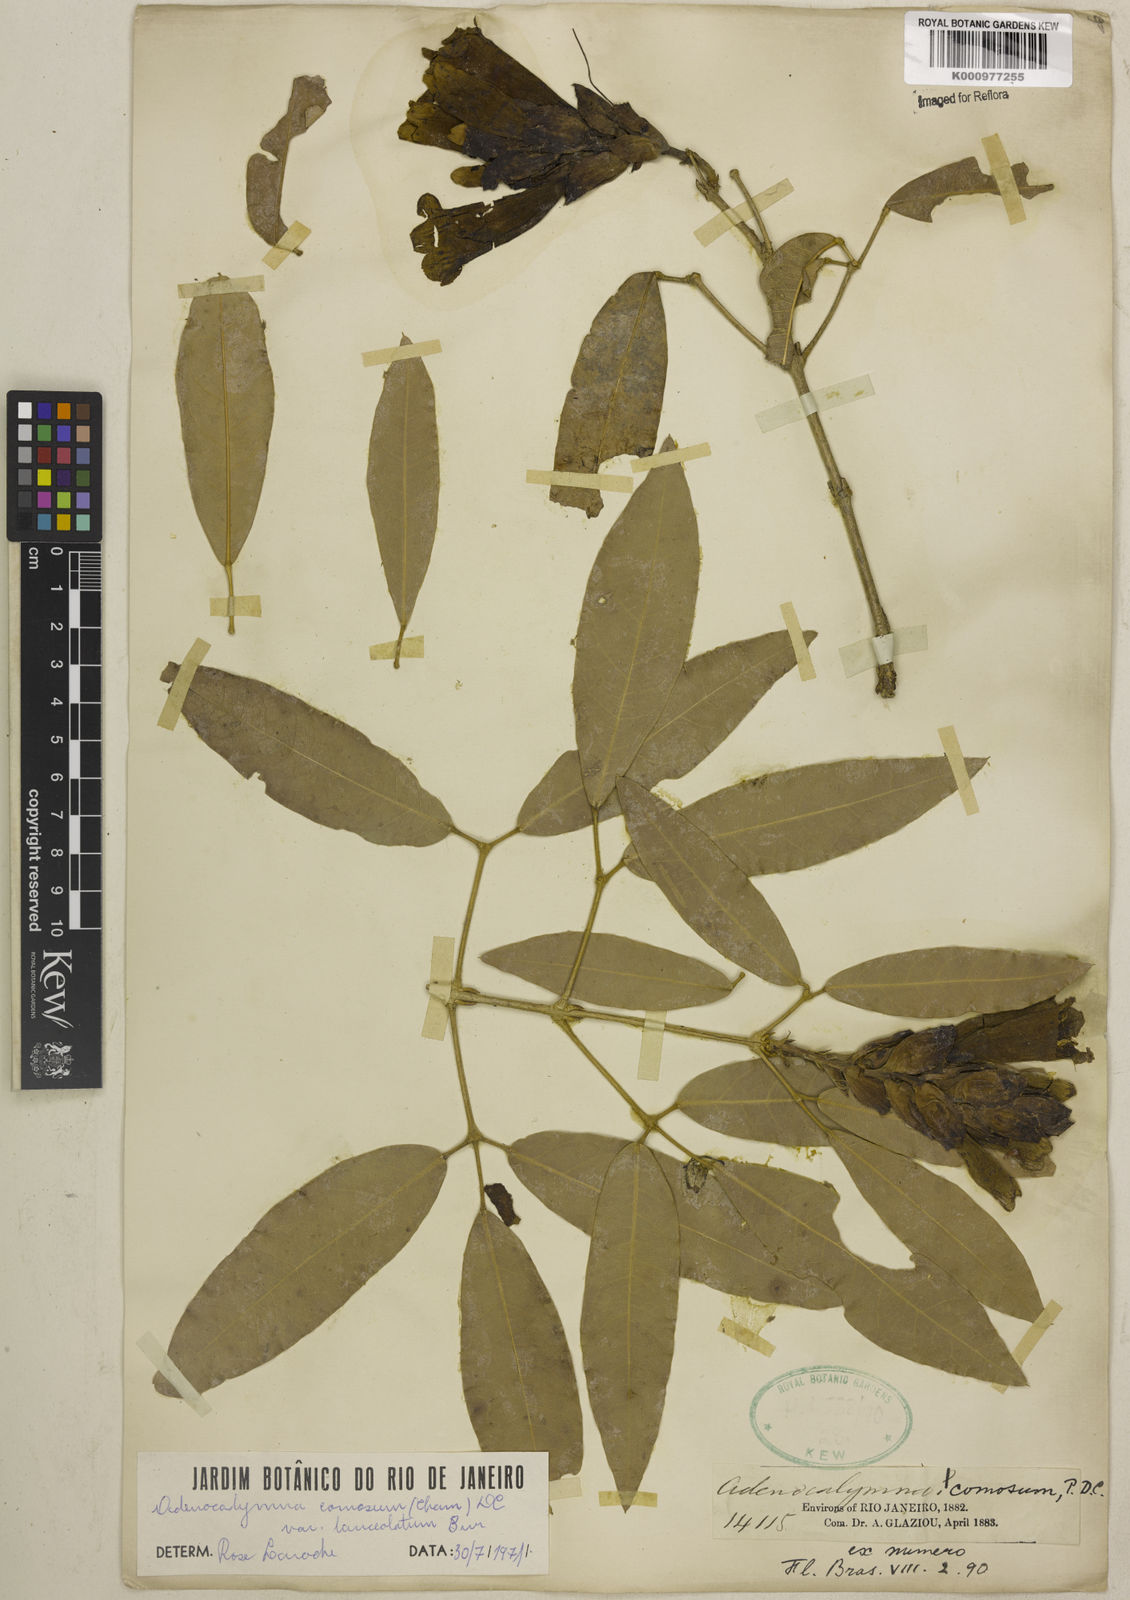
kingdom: Plantae
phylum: Tracheophyta
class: Magnoliopsida
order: Lamiales
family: Bignoniaceae
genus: Adenocalymma
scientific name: Adenocalymma acutissimum
